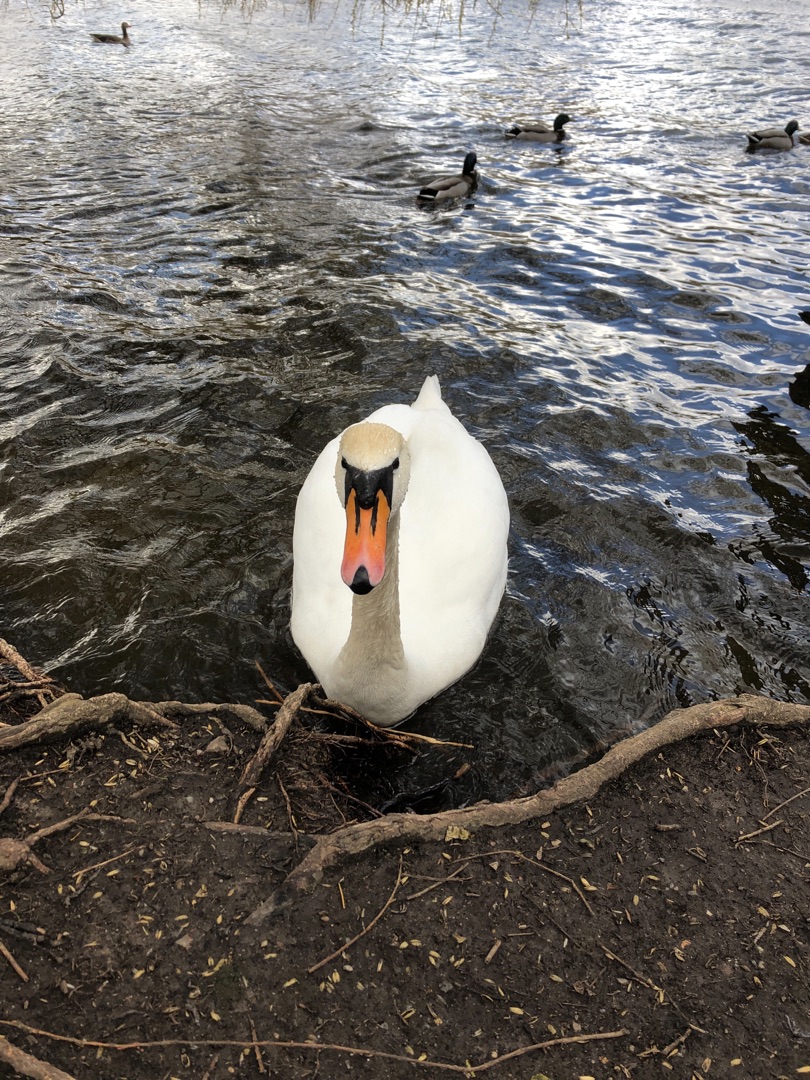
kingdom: Animalia
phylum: Chordata
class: Aves
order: Anseriformes
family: Anatidae
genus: Cygnus
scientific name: Cygnus olor
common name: Knopsvane
